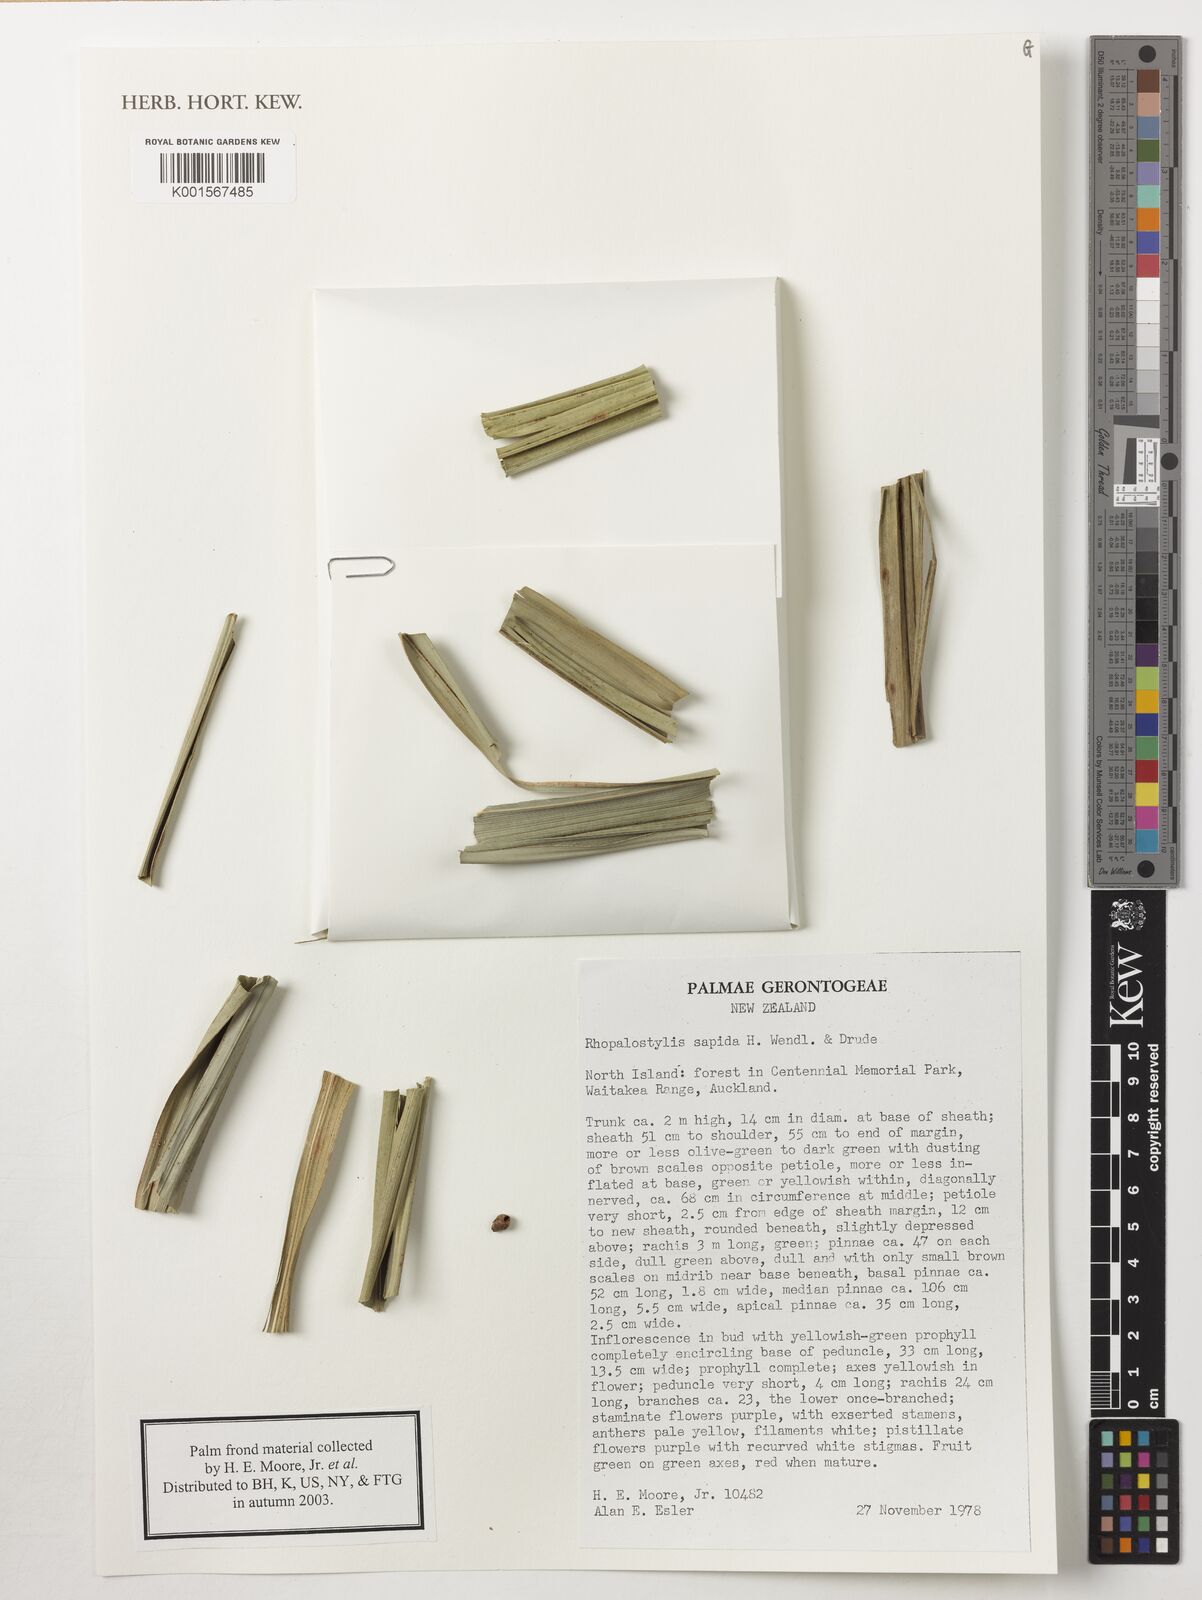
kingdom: Plantae
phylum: Tracheophyta
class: Liliopsida
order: Arecales
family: Arecaceae
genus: Rhopalostylis
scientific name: Rhopalostylis sapida
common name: Feather-duster palm
